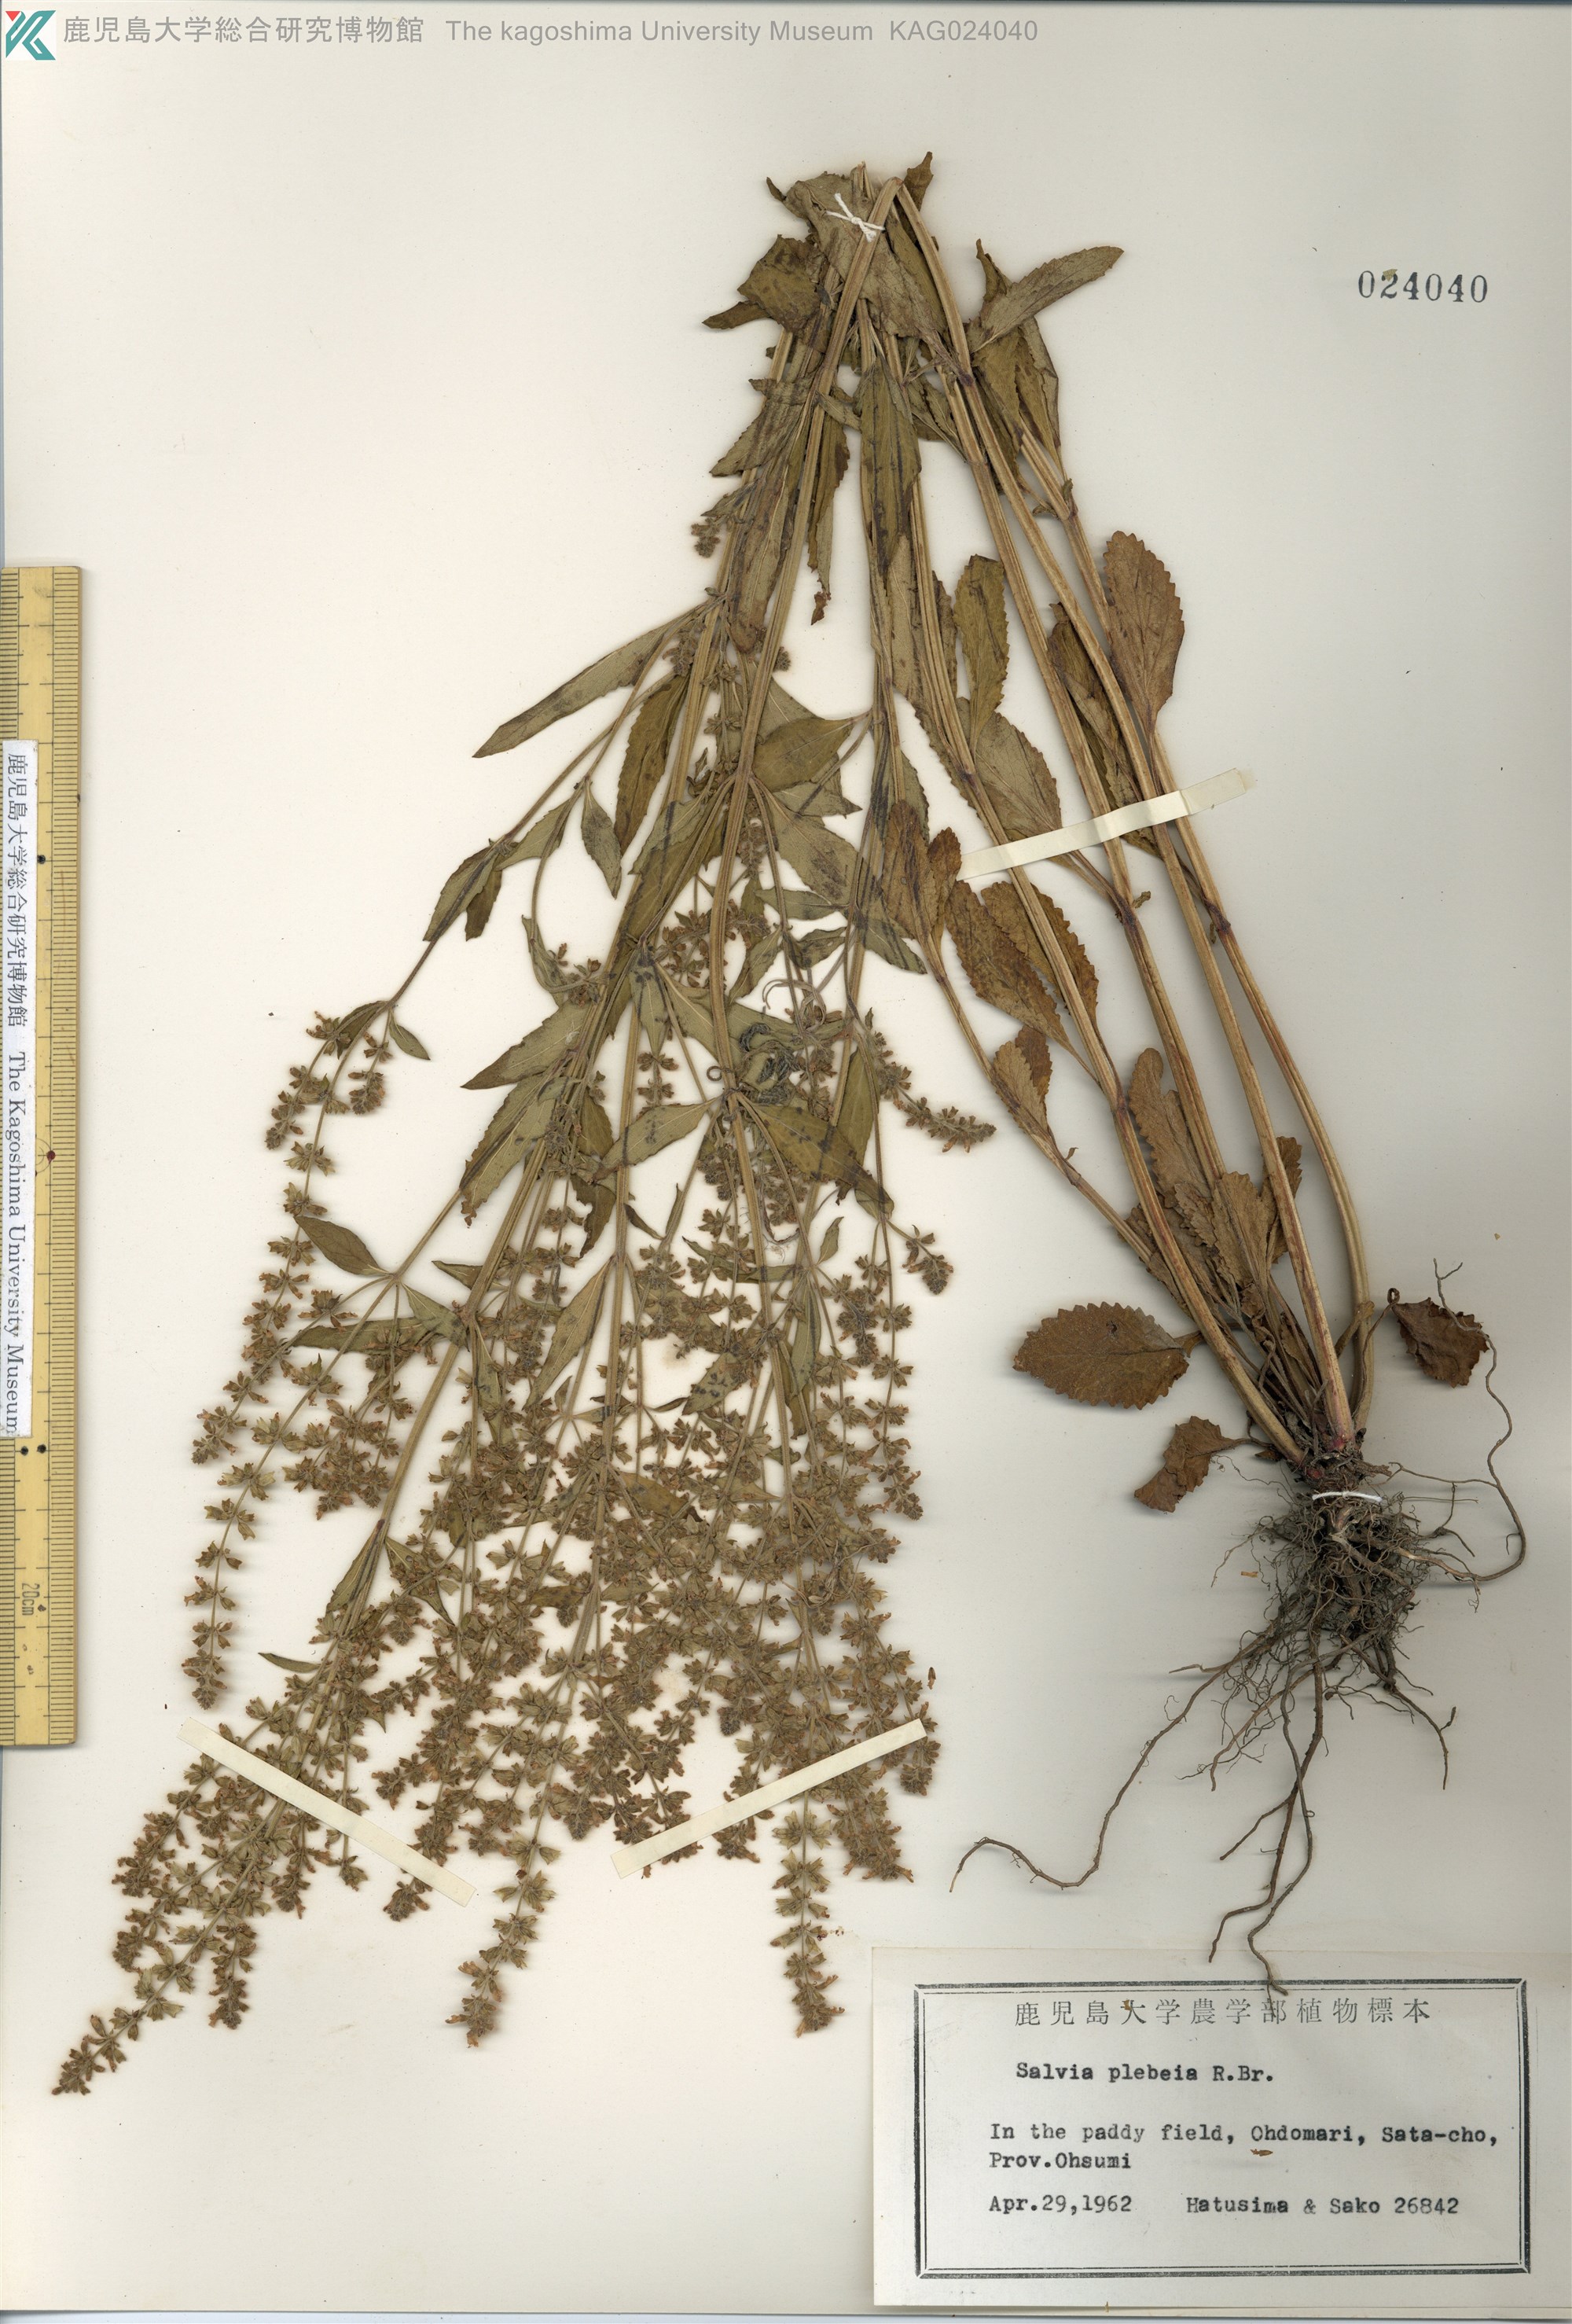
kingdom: Plantae
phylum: Tracheophyta
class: Magnoliopsida
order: Lamiales
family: Lamiaceae
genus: Salvia
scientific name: Salvia plebeia
